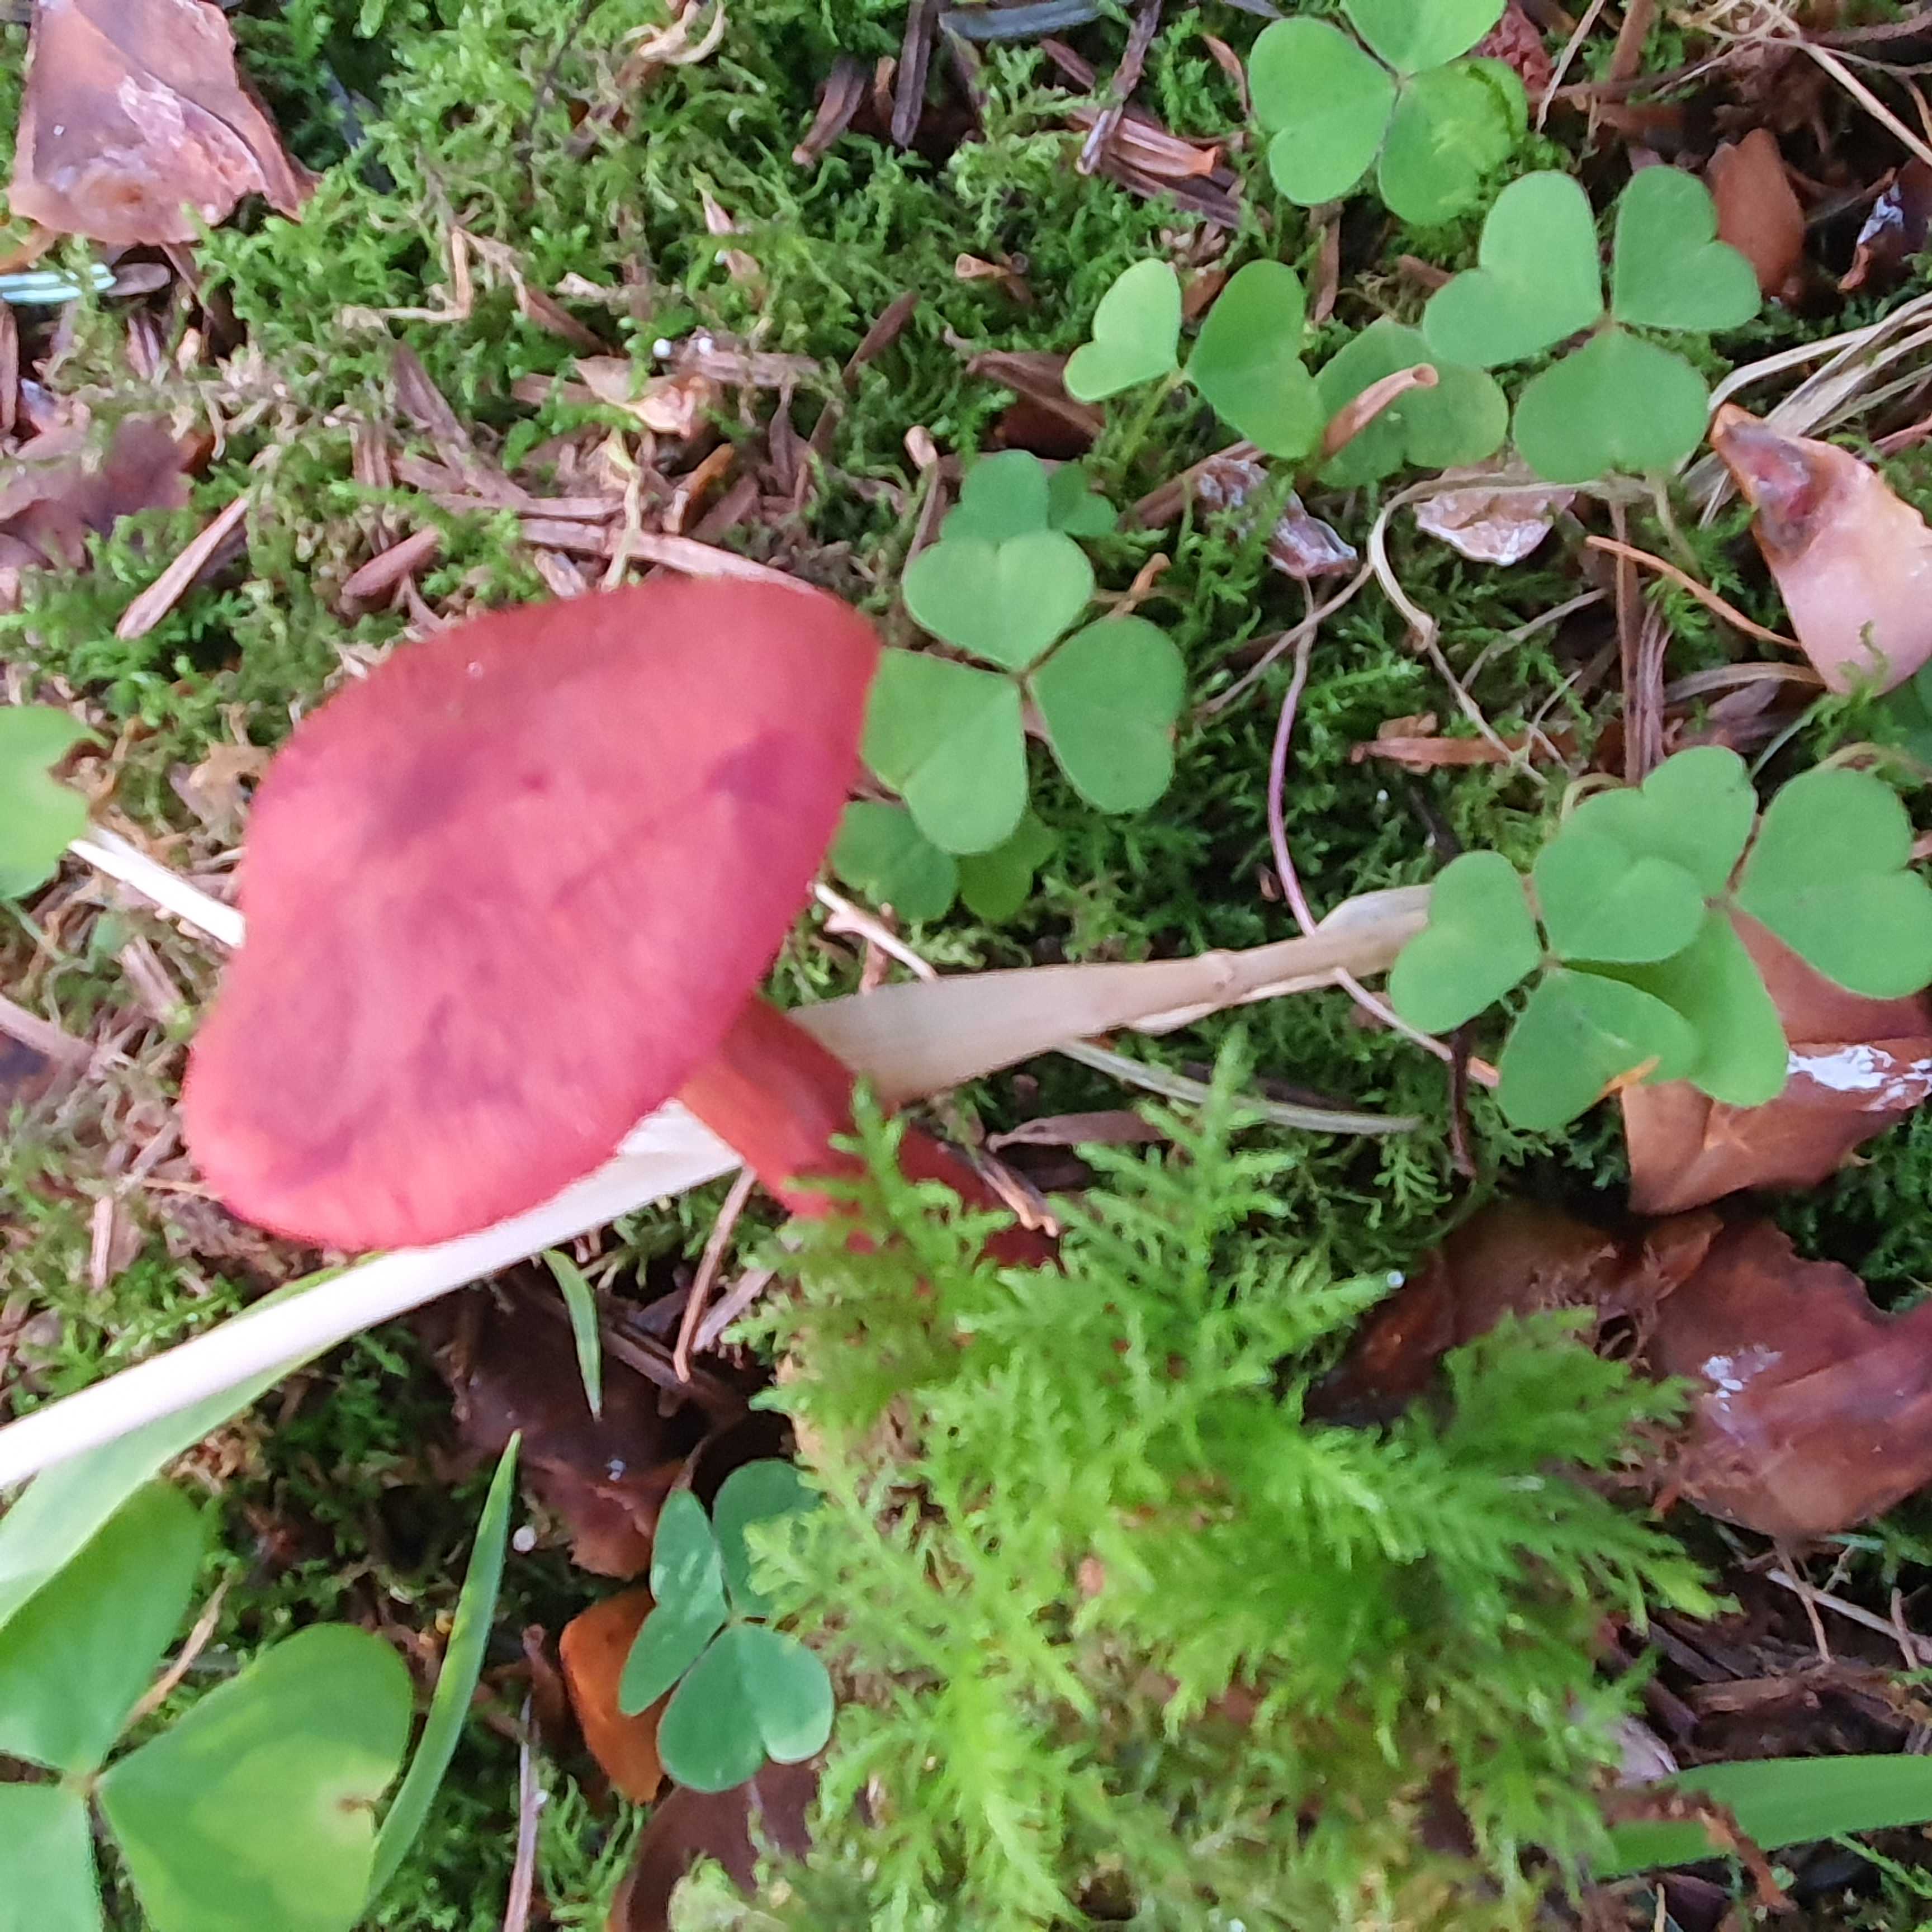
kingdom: Fungi
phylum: Basidiomycota
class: Agaricomycetes
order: Agaricales
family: Cortinariaceae
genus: Cortinarius
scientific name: Cortinarius sanguineus
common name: blodrød slørhat
